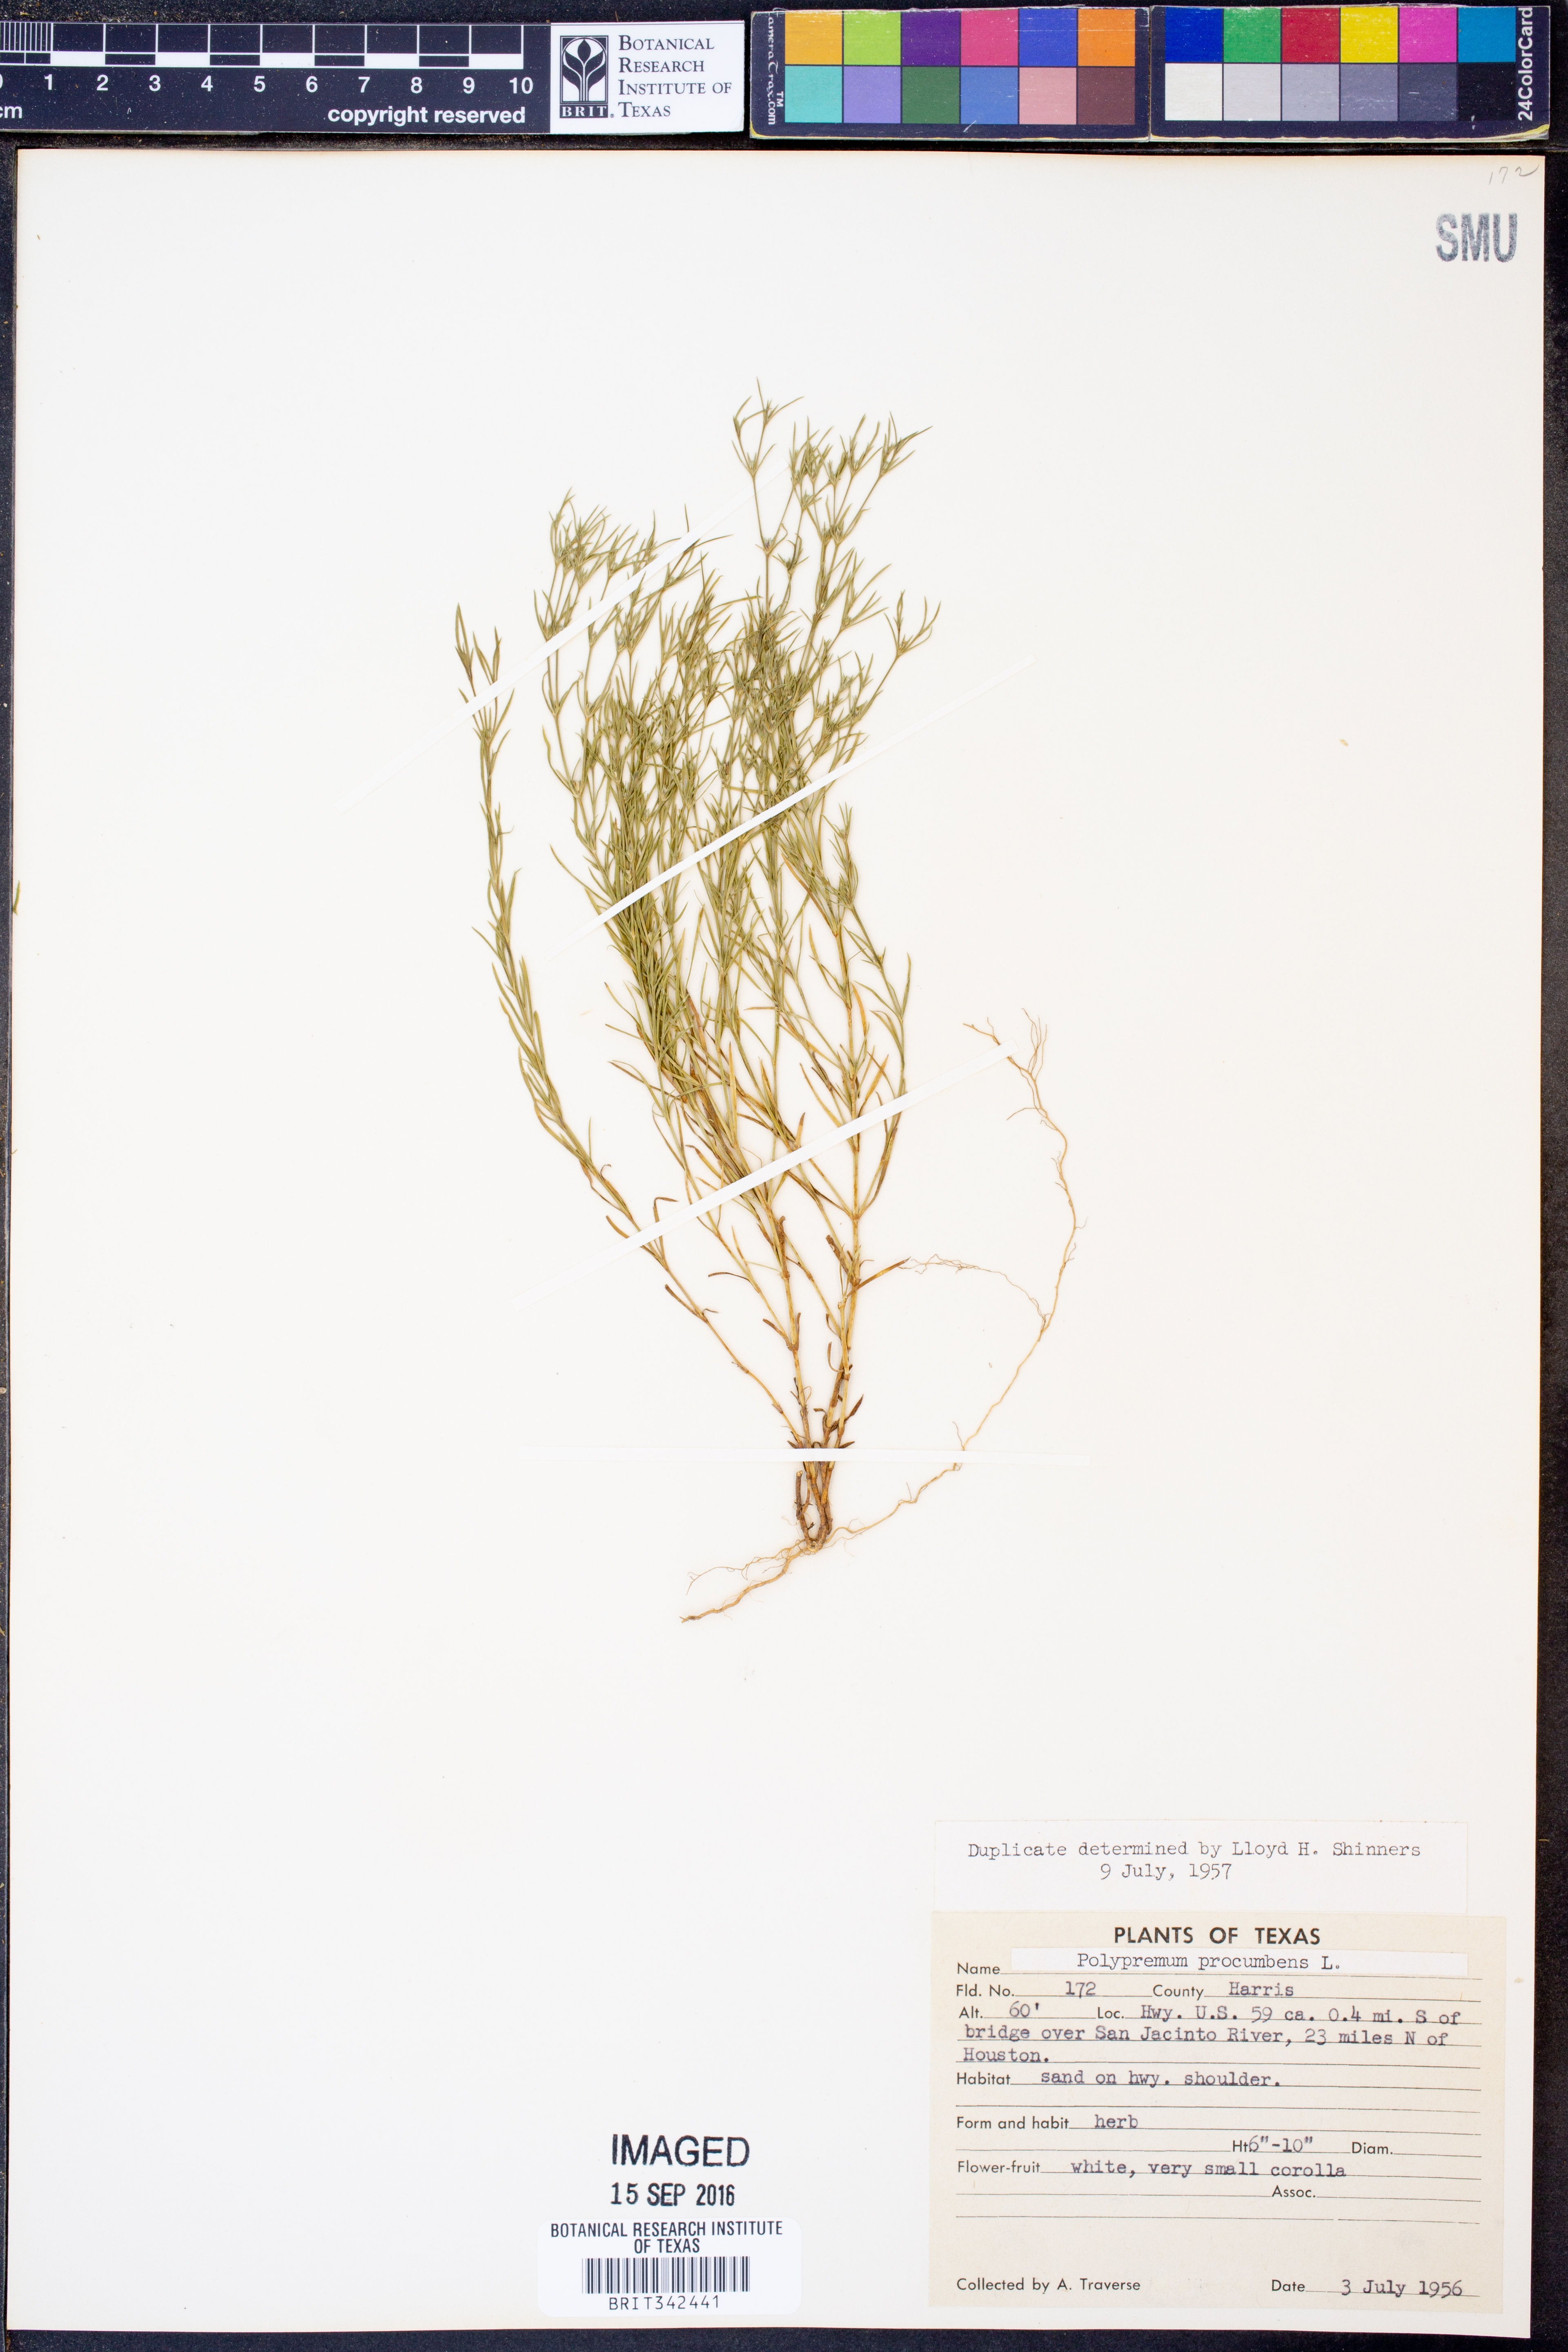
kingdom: Plantae
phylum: Tracheophyta
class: Magnoliopsida
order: Lamiales
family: Tetrachondraceae
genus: Polypremum
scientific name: Polypremum procumbens
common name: Juniper-leaf
